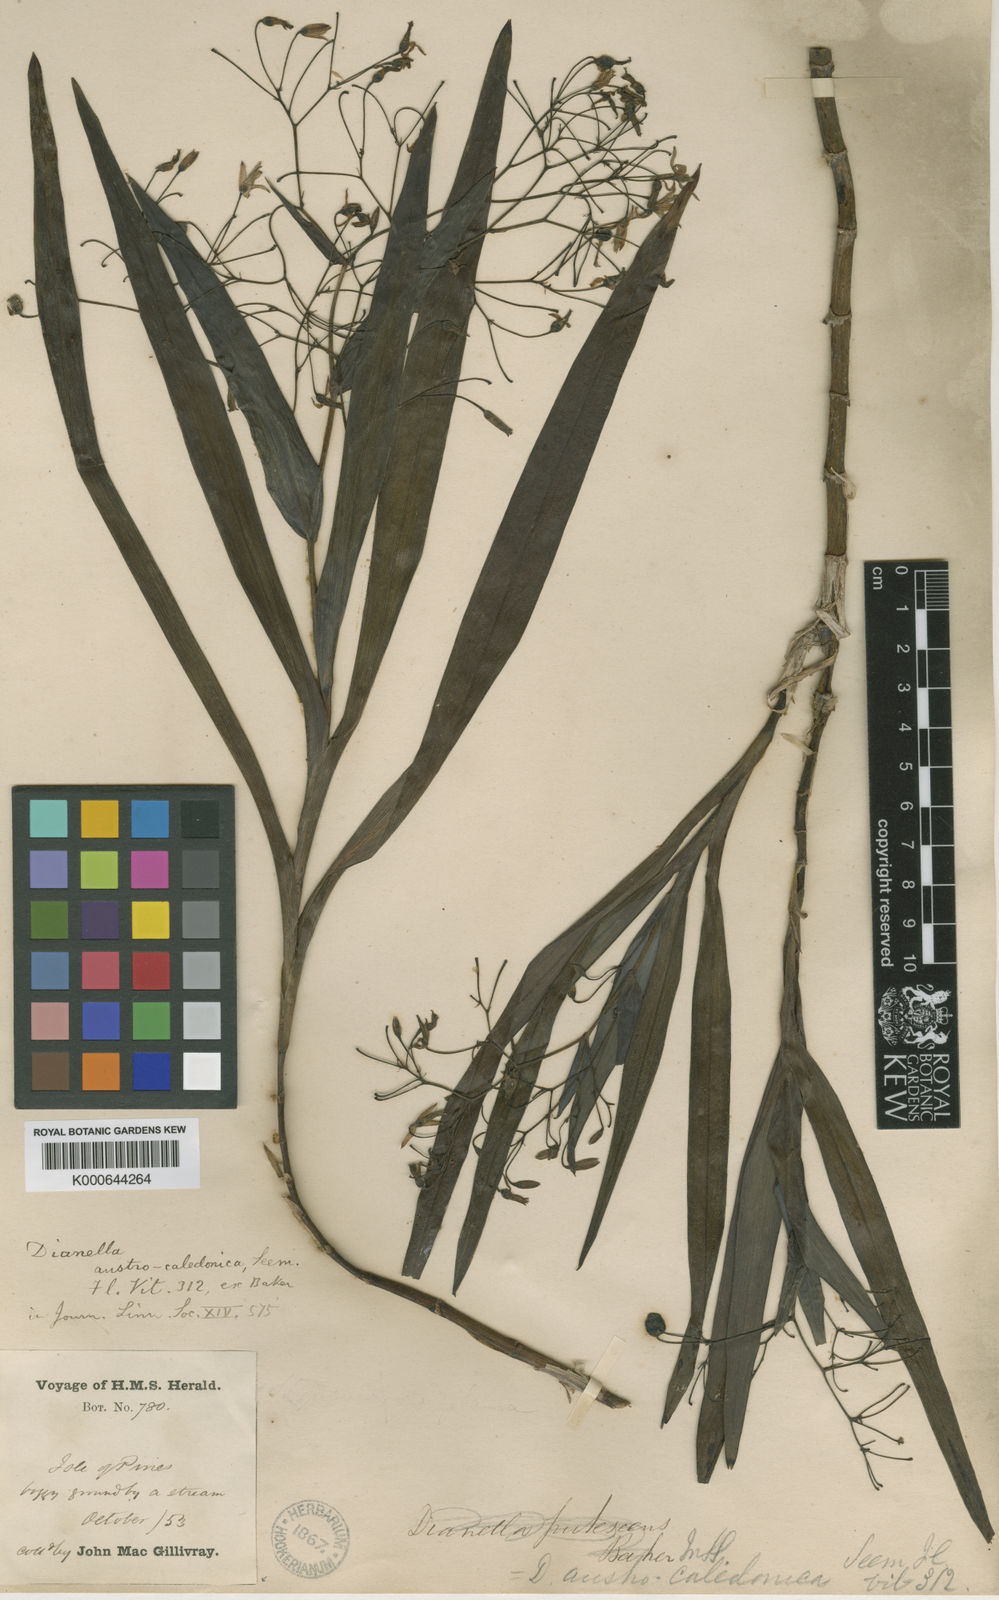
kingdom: Plantae
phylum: Tracheophyta
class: Liliopsida
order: Asparagales
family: Asphodelaceae
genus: Rhuacophila
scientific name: Rhuacophila javanica
